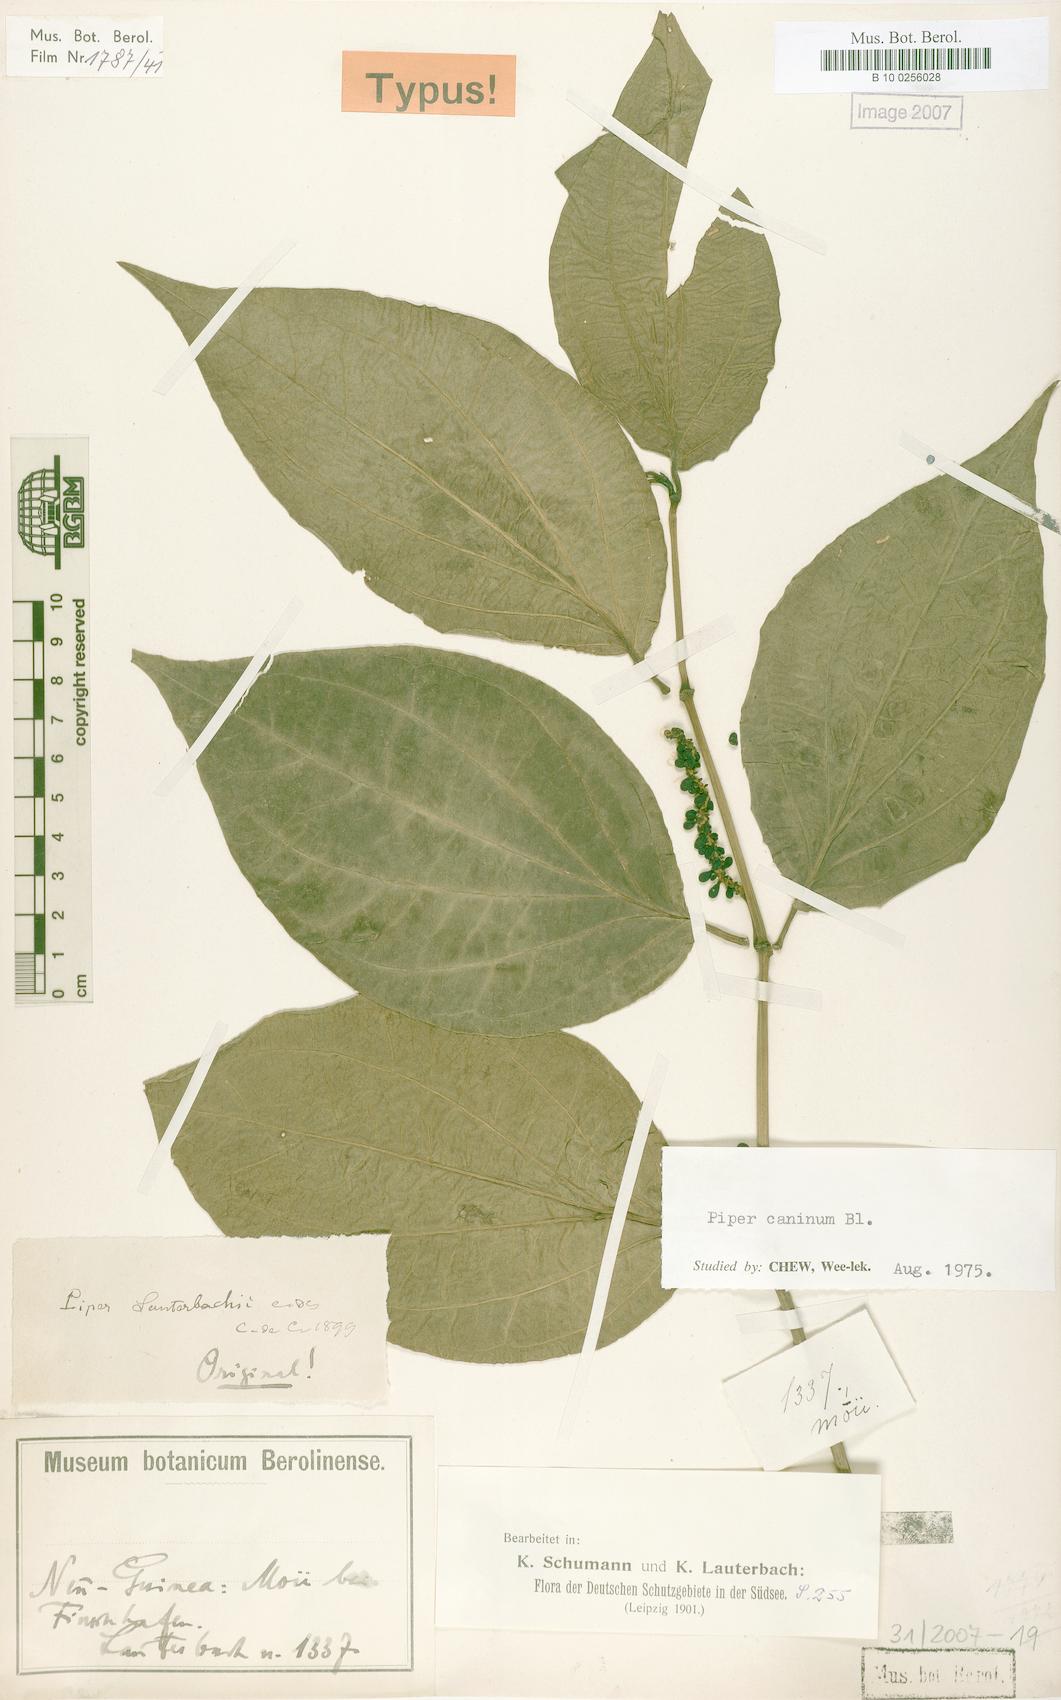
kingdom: Plantae
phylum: Tracheophyta
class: Magnoliopsida
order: Piperales
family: Piperaceae
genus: Piper
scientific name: Piper lanatum
